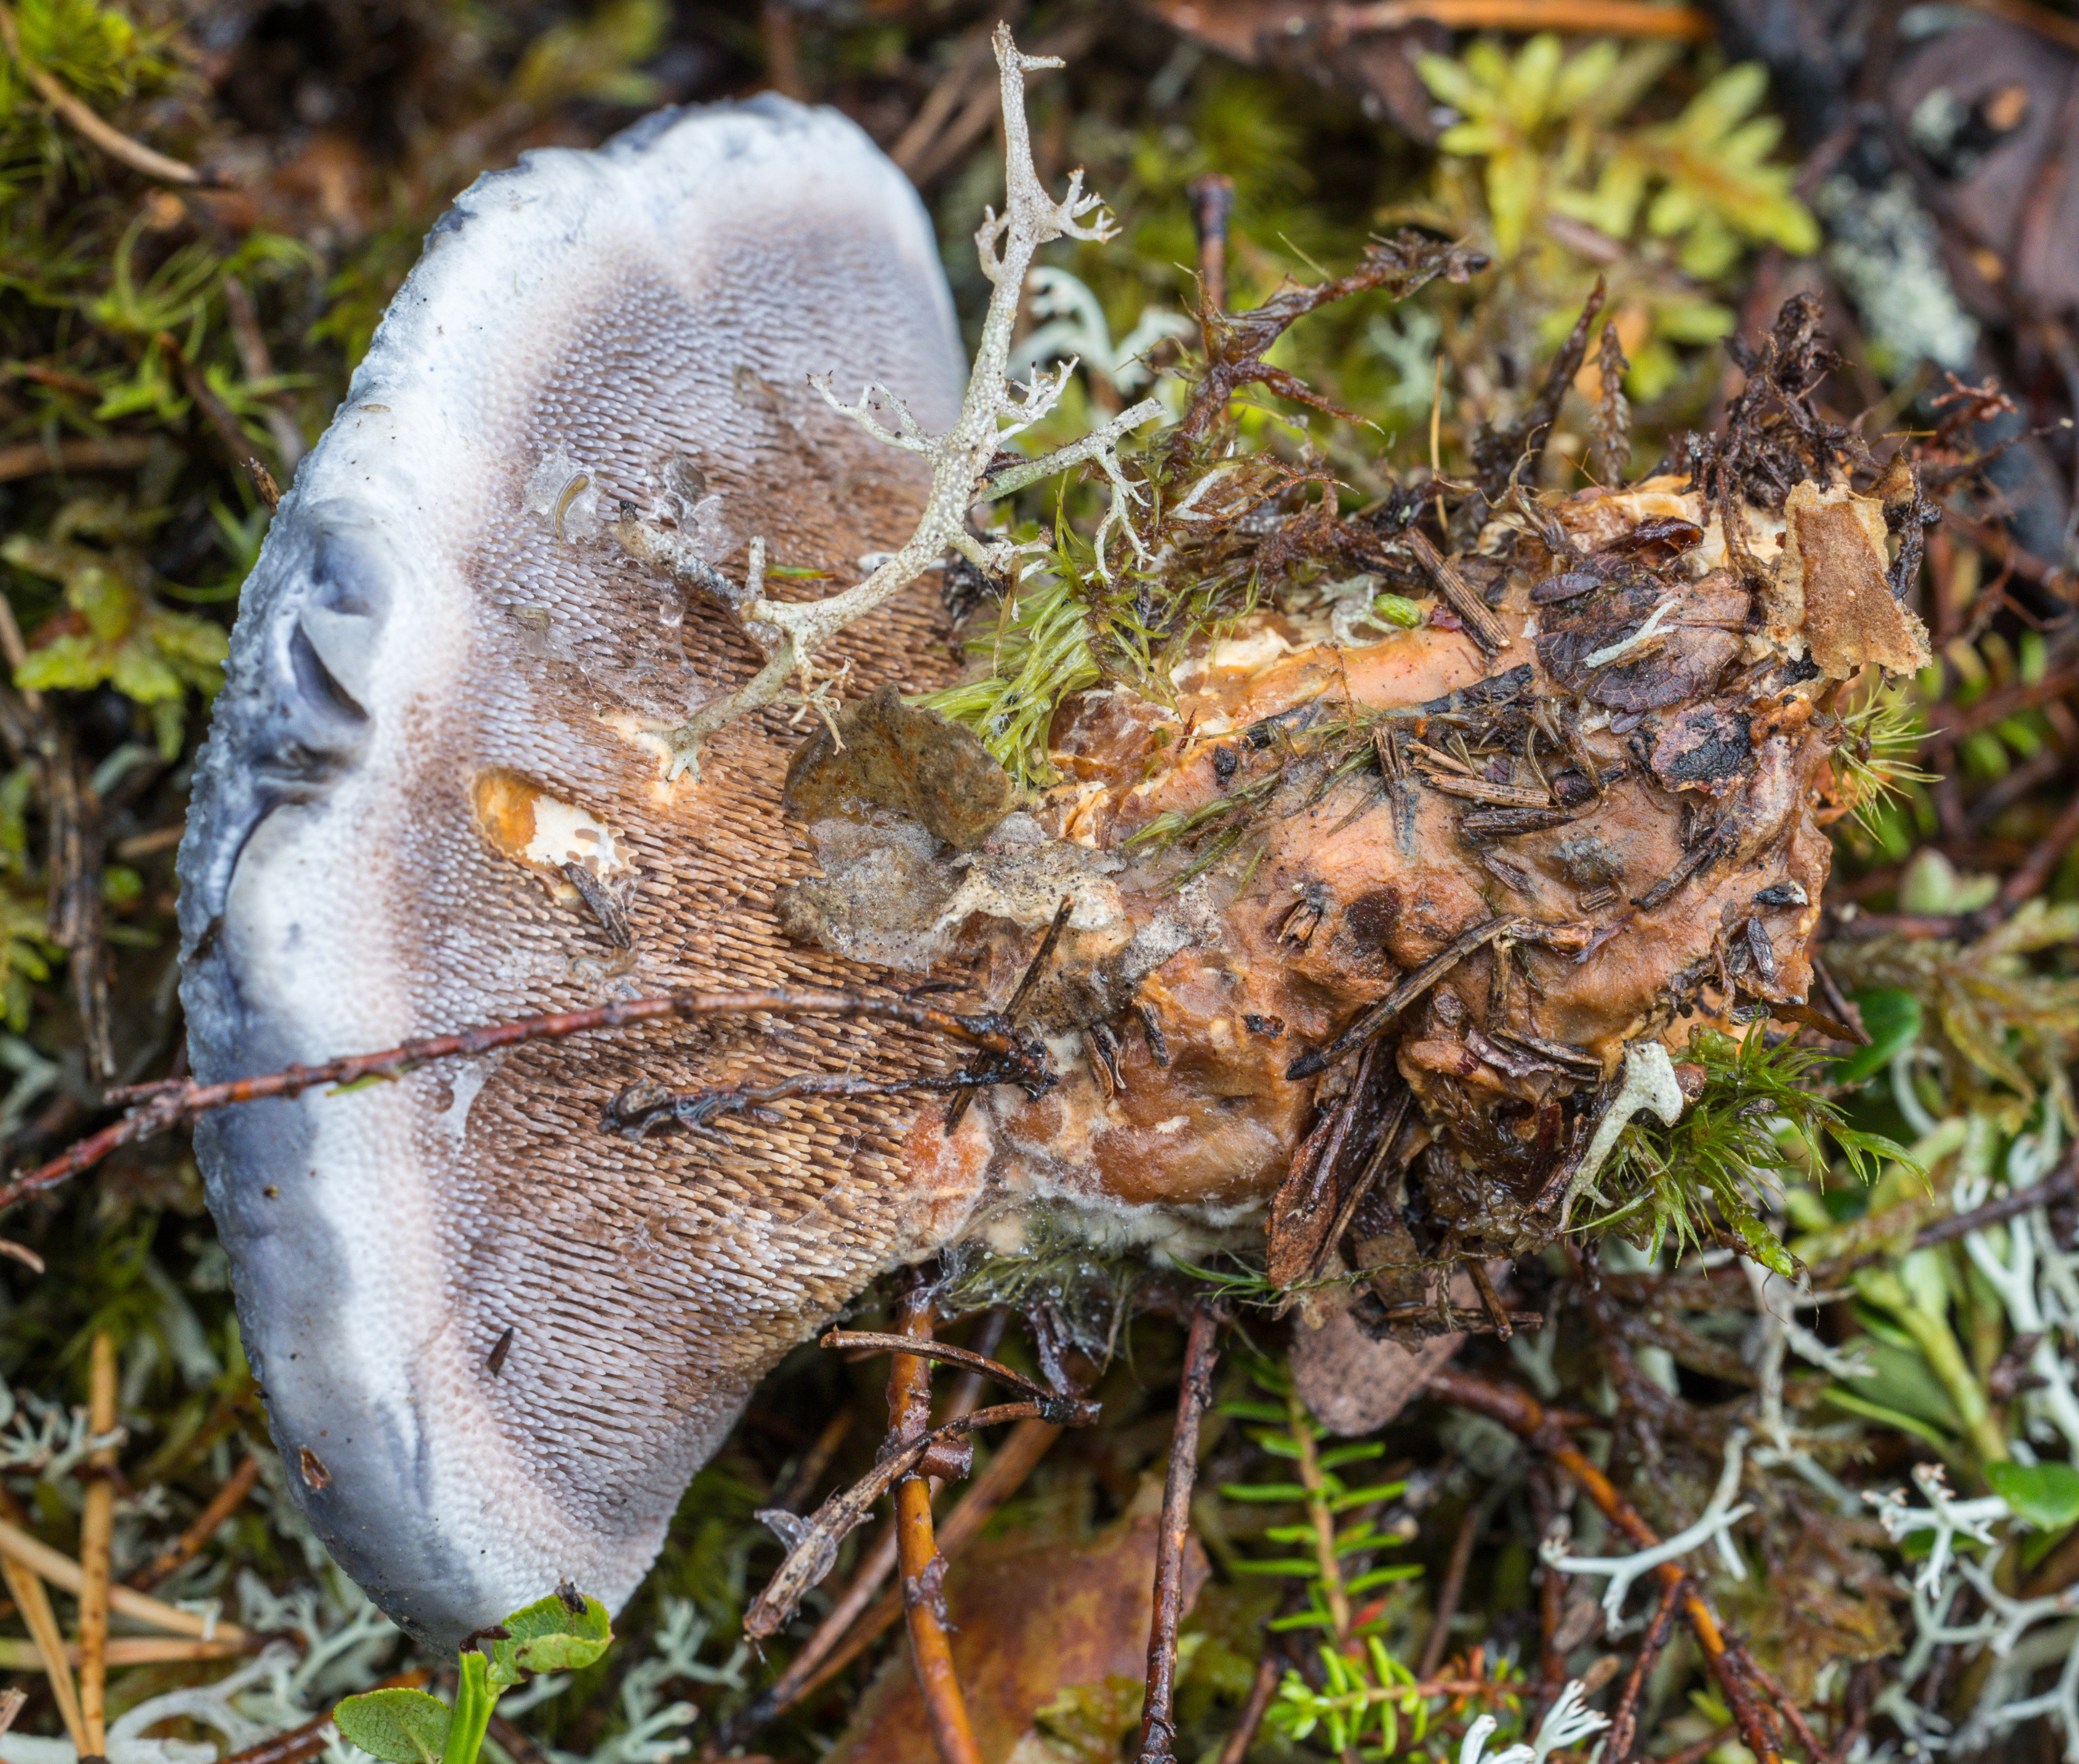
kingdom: Fungi
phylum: Basidiomycota
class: Agaricomycetes
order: Thelephorales
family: Bankeraceae
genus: Hydnellum
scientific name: Hydnellum caeruleum
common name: Blue corky spine fungus
